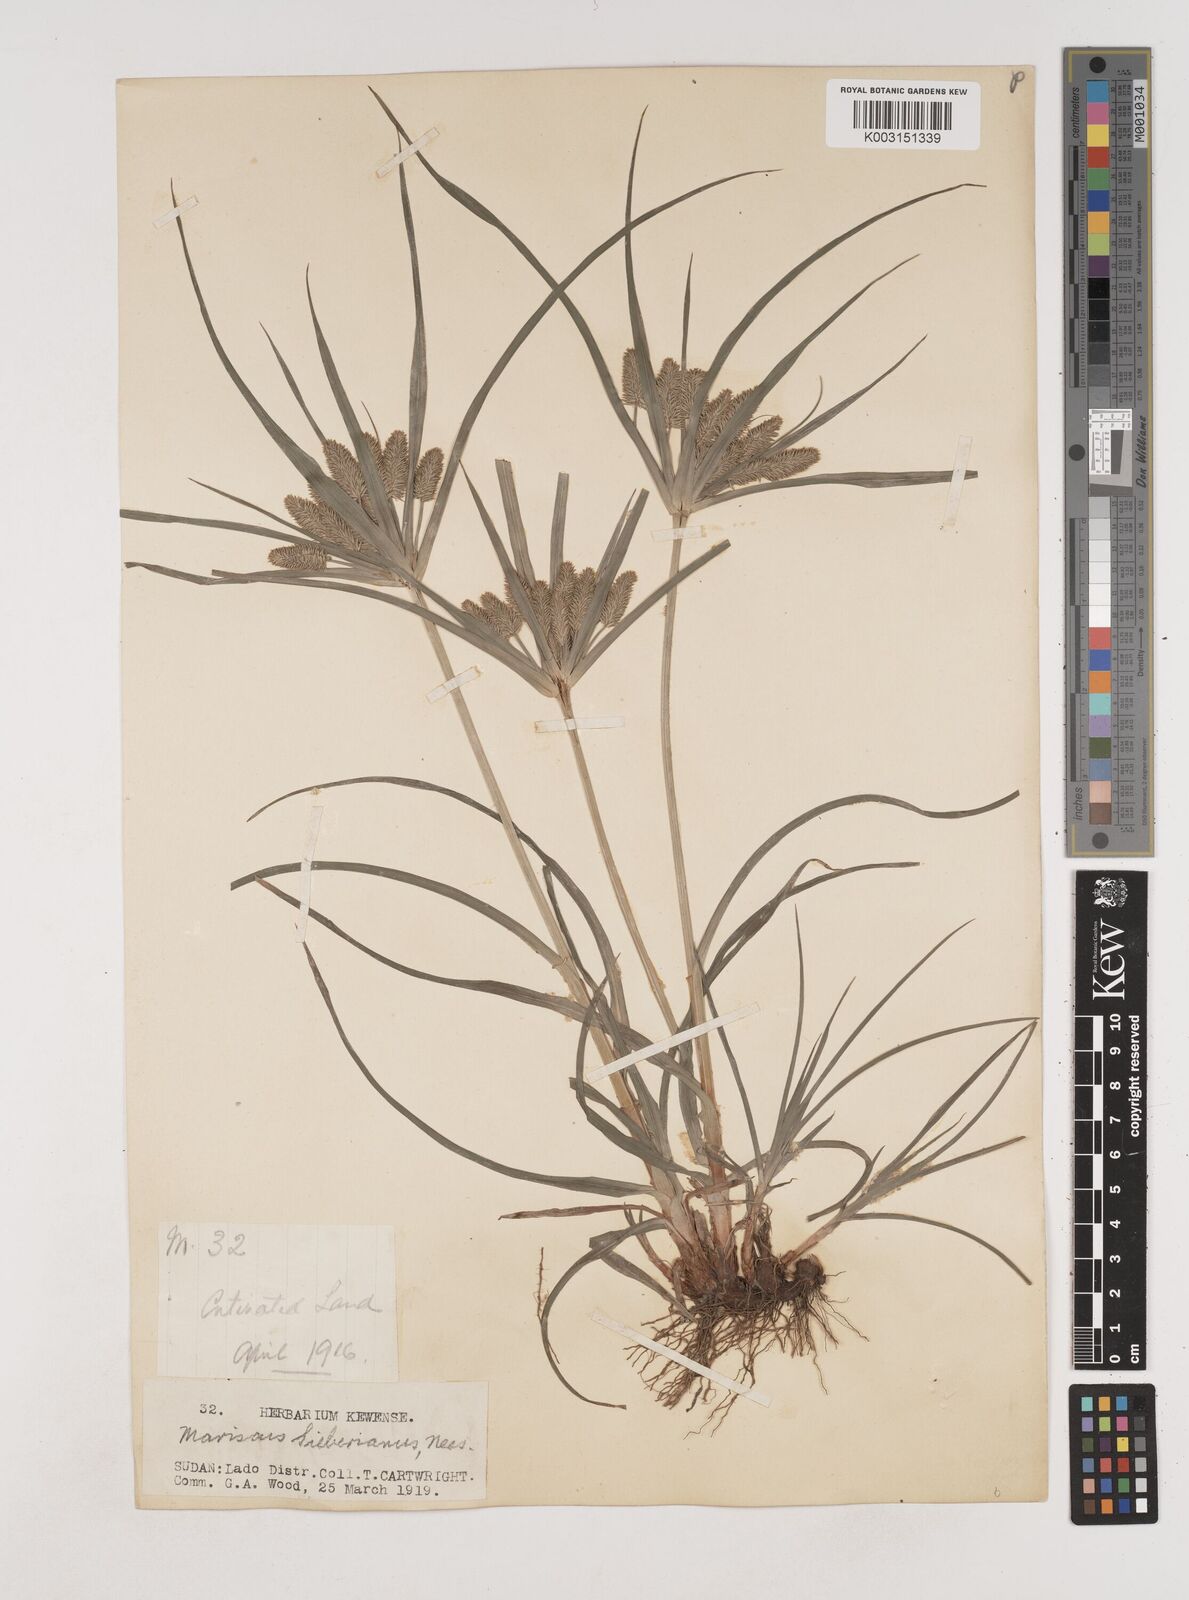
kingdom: Plantae
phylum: Tracheophyta
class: Liliopsida
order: Poales
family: Cyperaceae
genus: Cyperus
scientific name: Cyperus cyperoides
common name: Pacific island flat sedge
